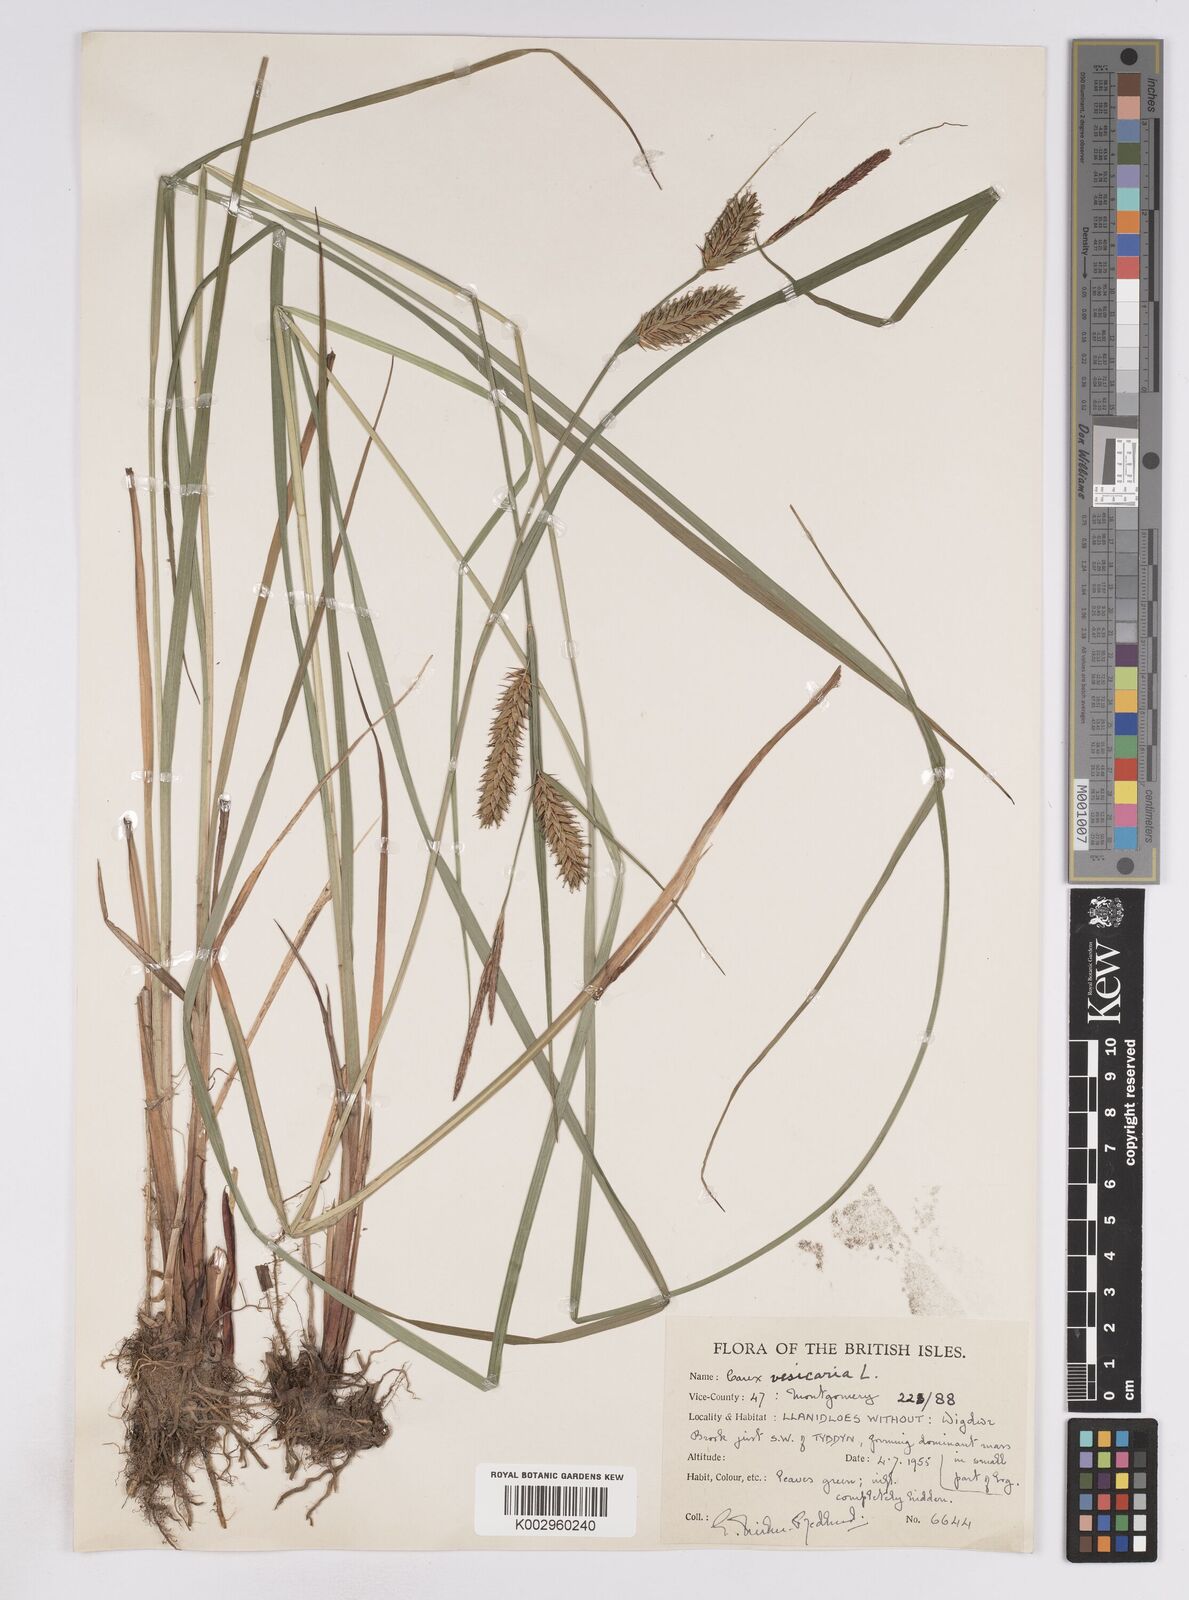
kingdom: Plantae
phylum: Tracheophyta
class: Liliopsida
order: Poales
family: Cyperaceae
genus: Carex
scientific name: Carex vesicaria
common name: Bladder-sedge
